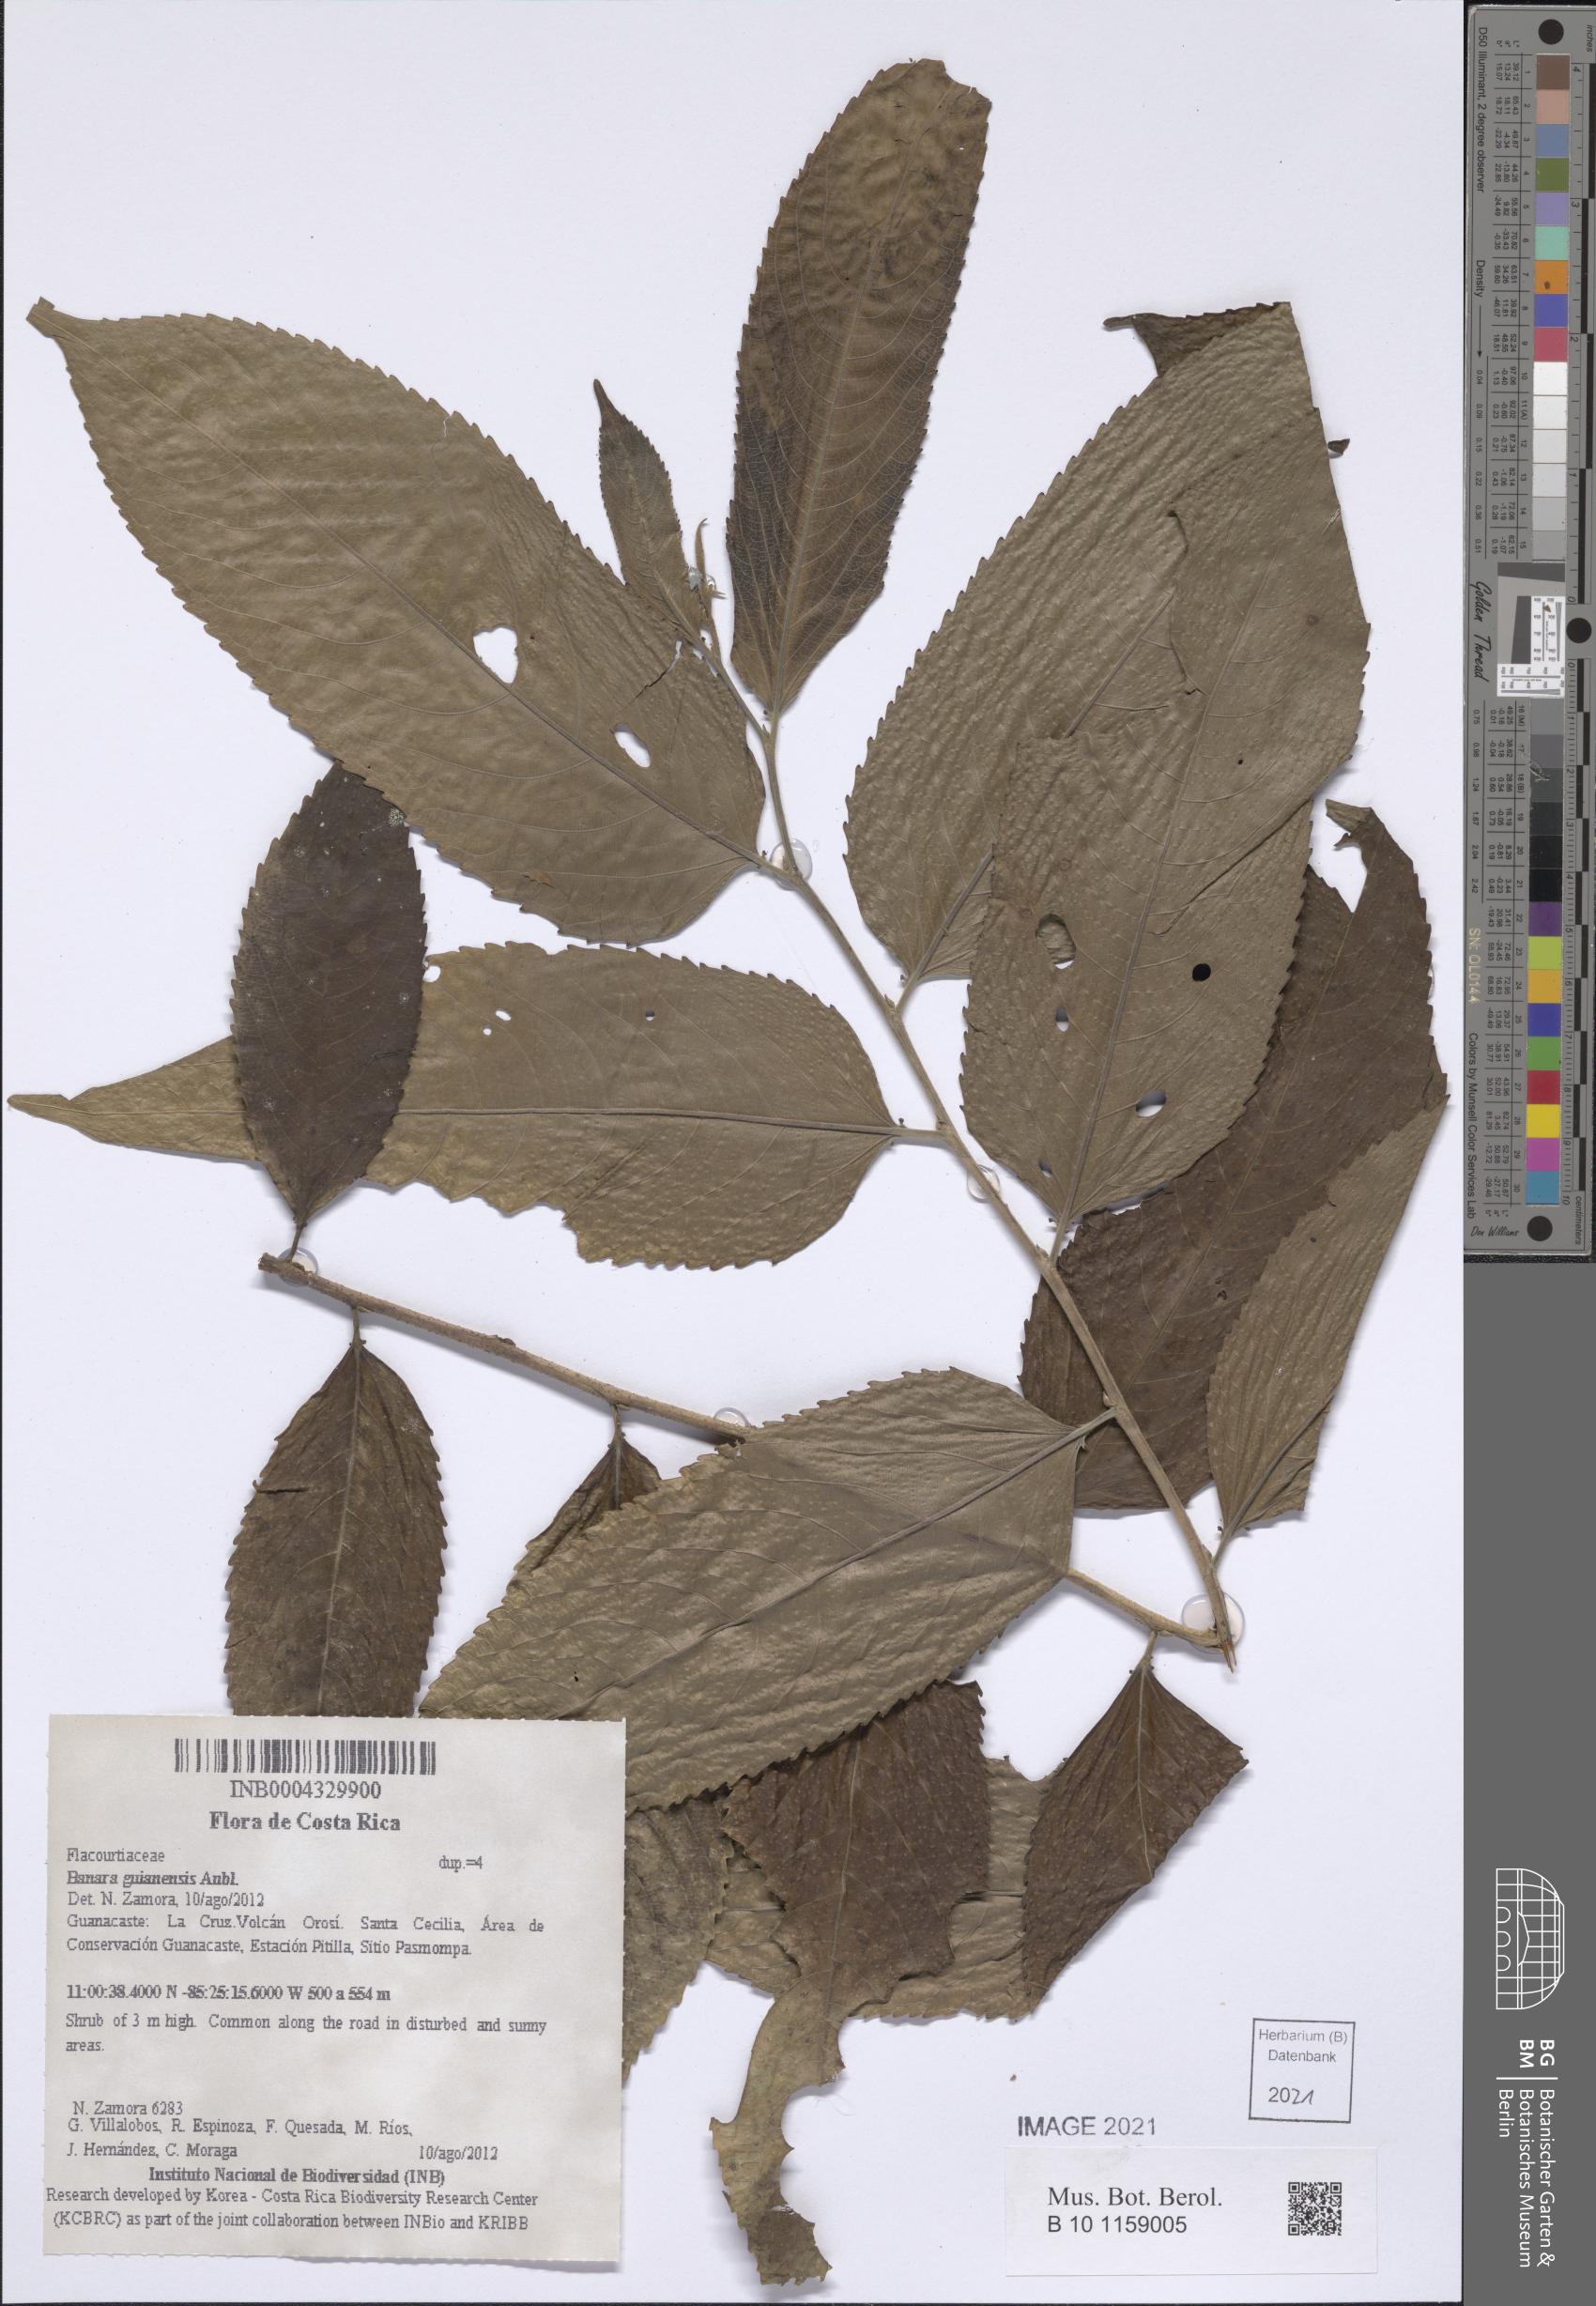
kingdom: Plantae
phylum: Tracheophyta
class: Magnoliopsida
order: Malpighiales
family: Salicaceae
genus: Banara
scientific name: Banara guianensis
